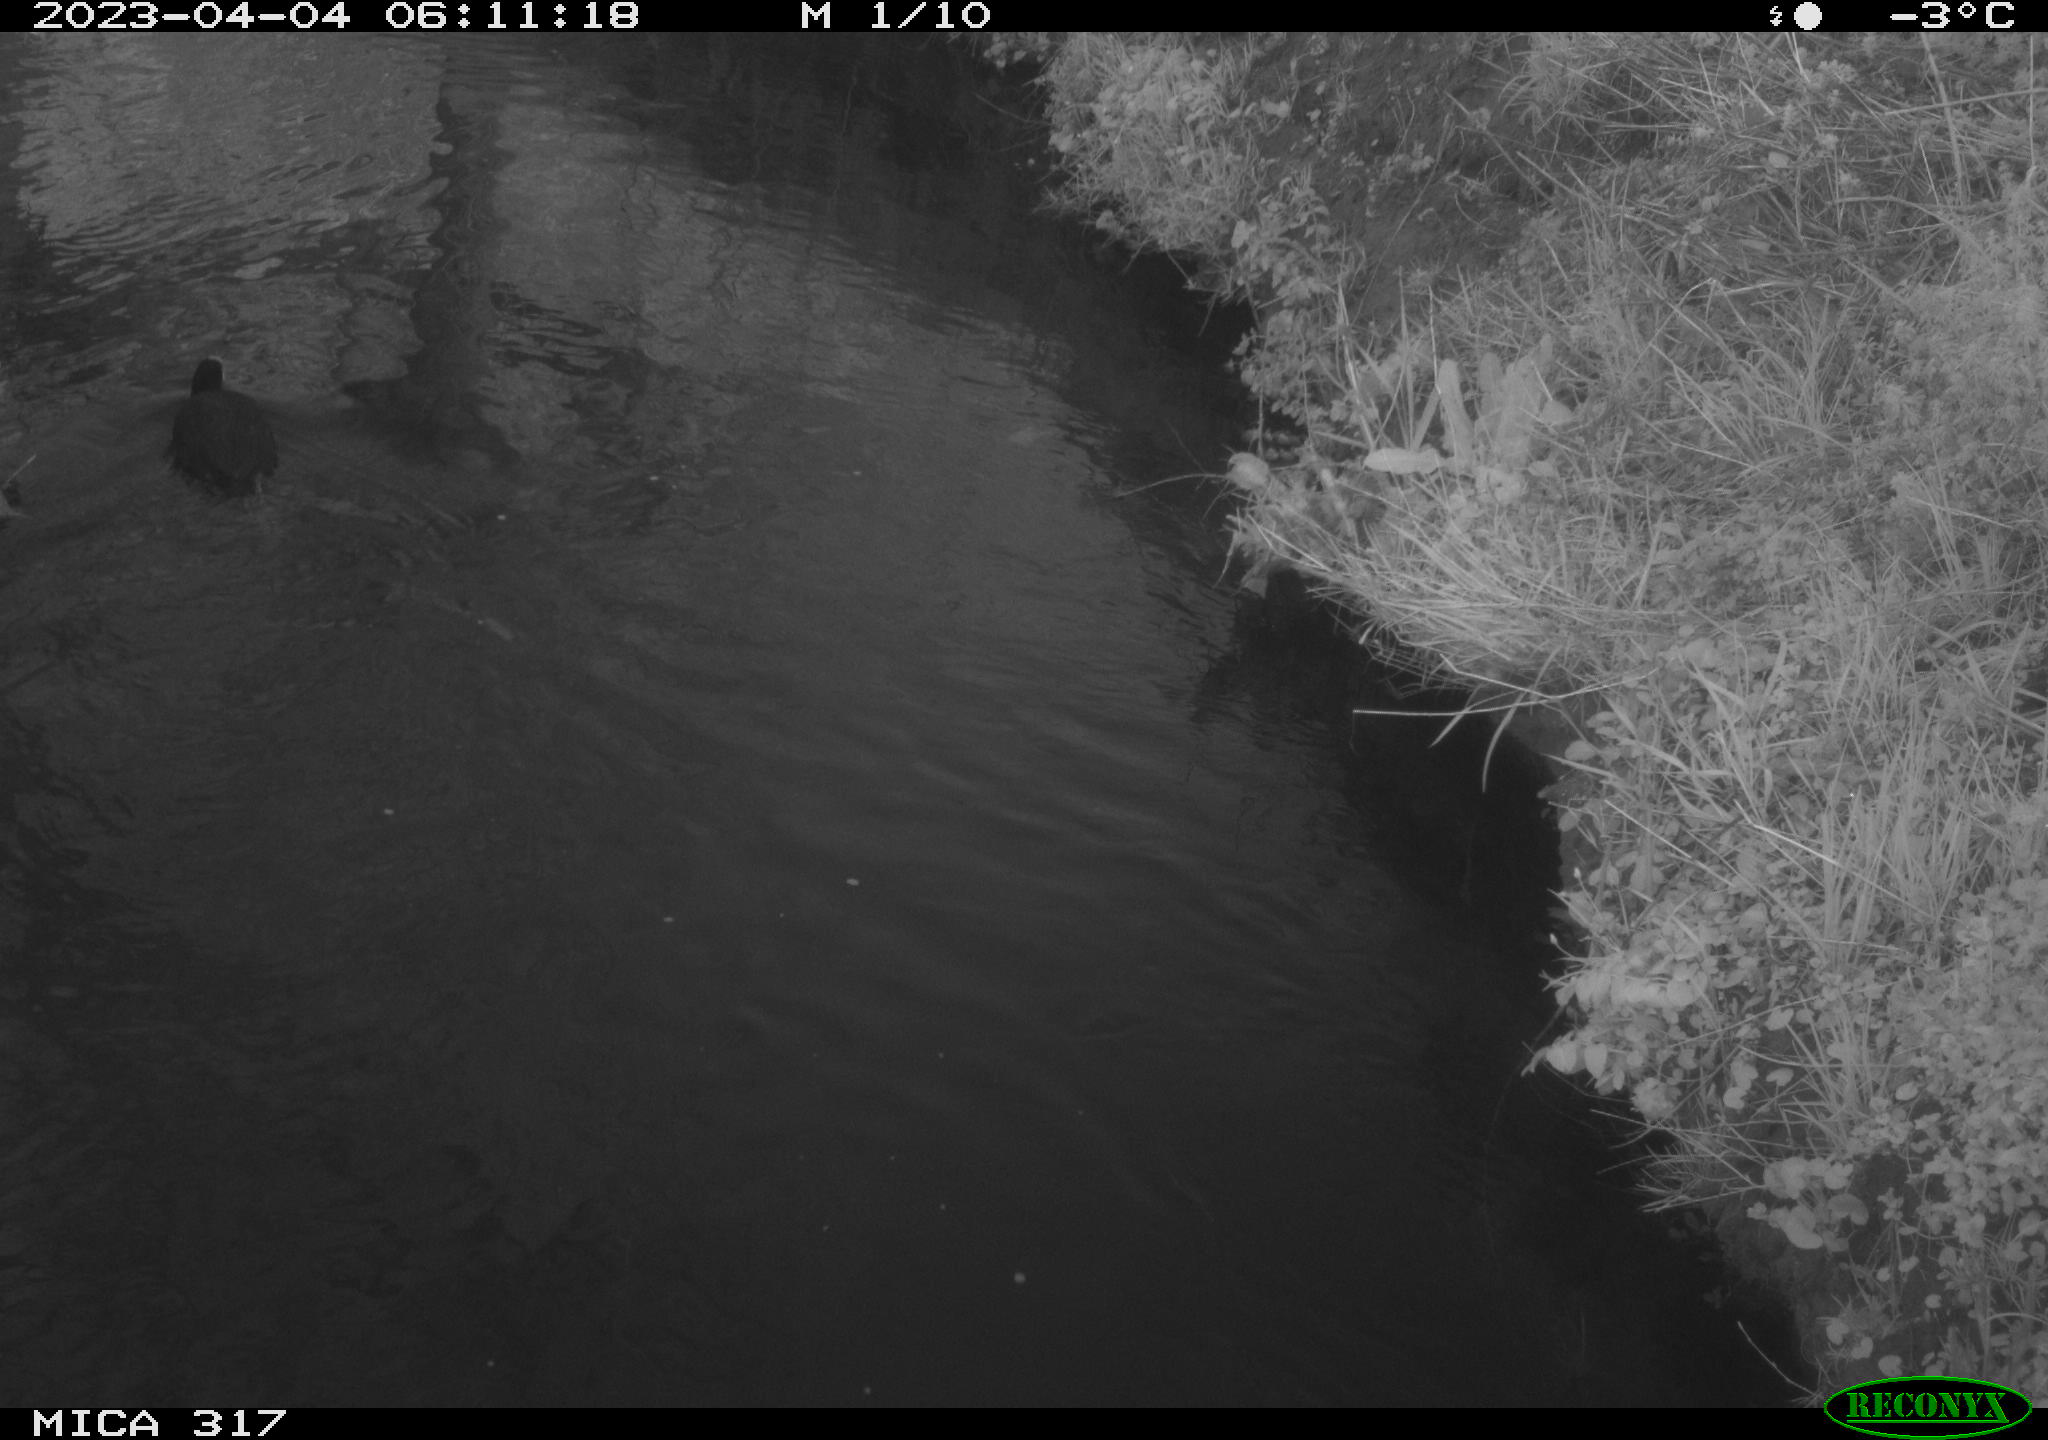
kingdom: Animalia
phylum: Chordata
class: Aves
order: Gruiformes
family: Rallidae
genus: Fulica
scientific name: Fulica atra
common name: Eurasian coot
